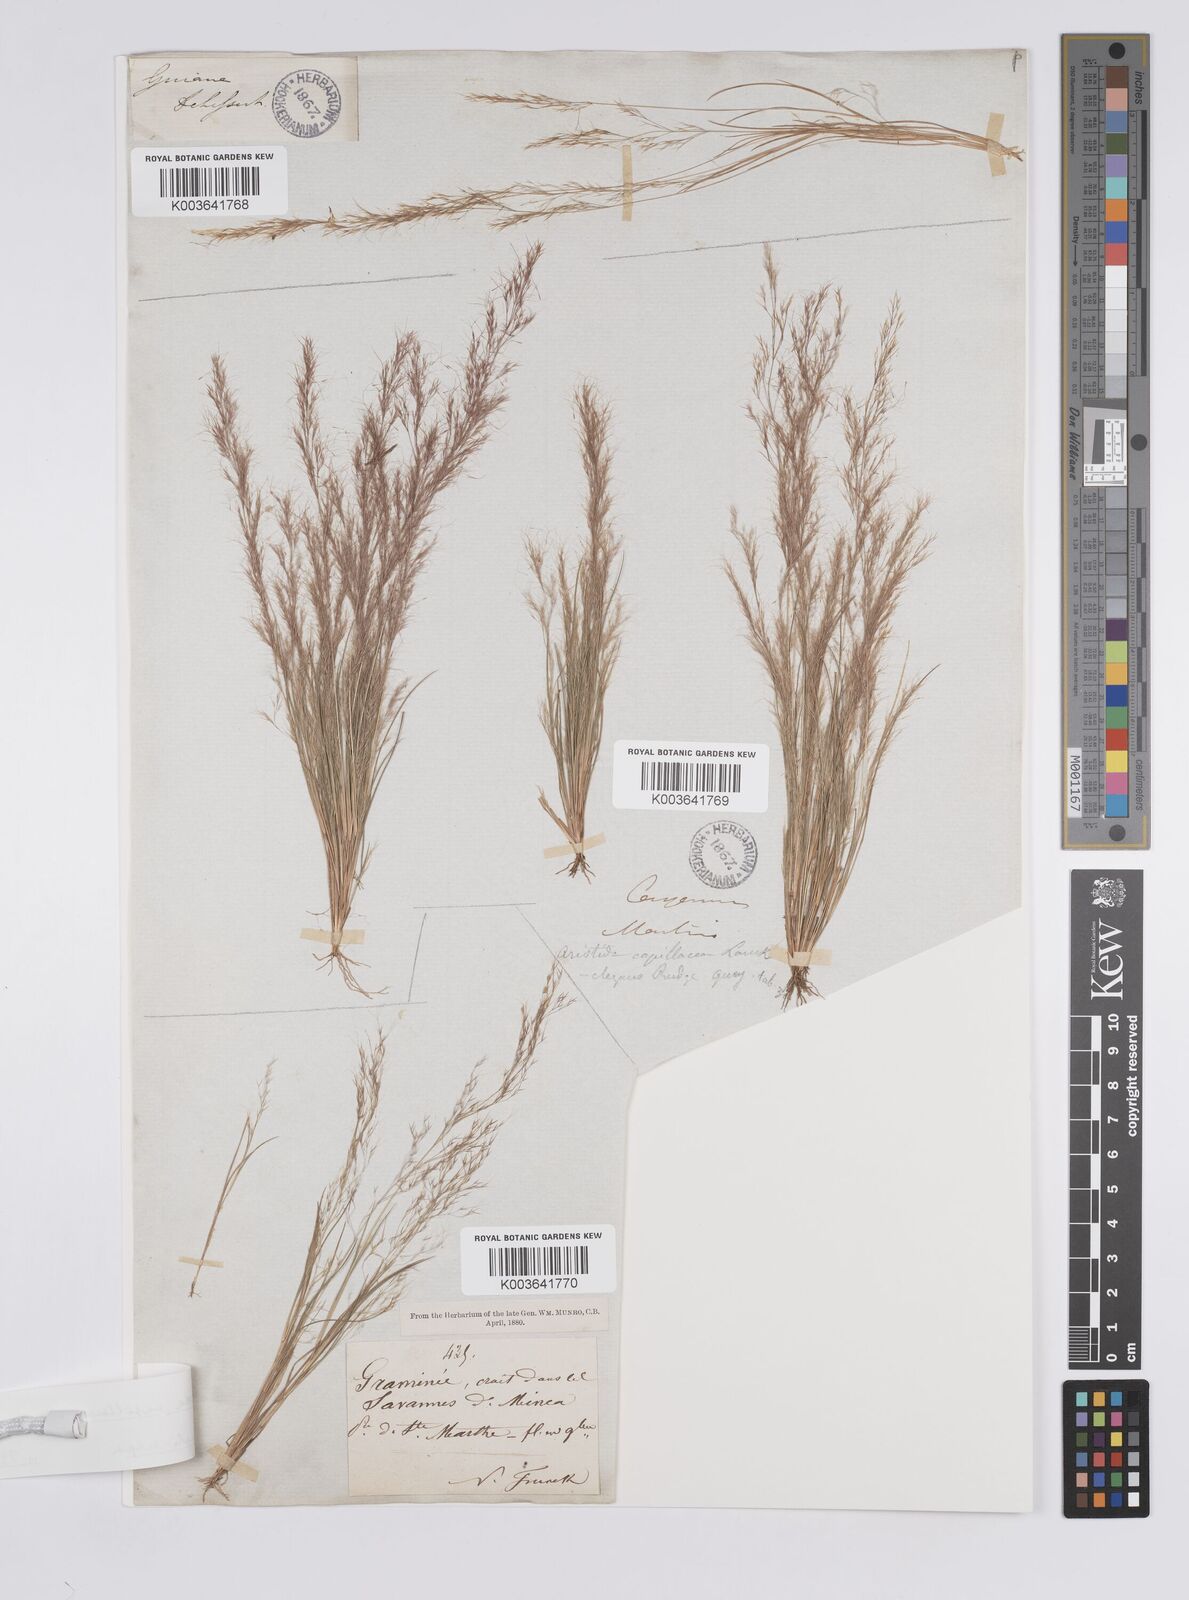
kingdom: Plantae
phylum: Tracheophyta
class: Liliopsida
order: Poales
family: Poaceae
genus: Aristida
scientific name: Aristida capillacea
